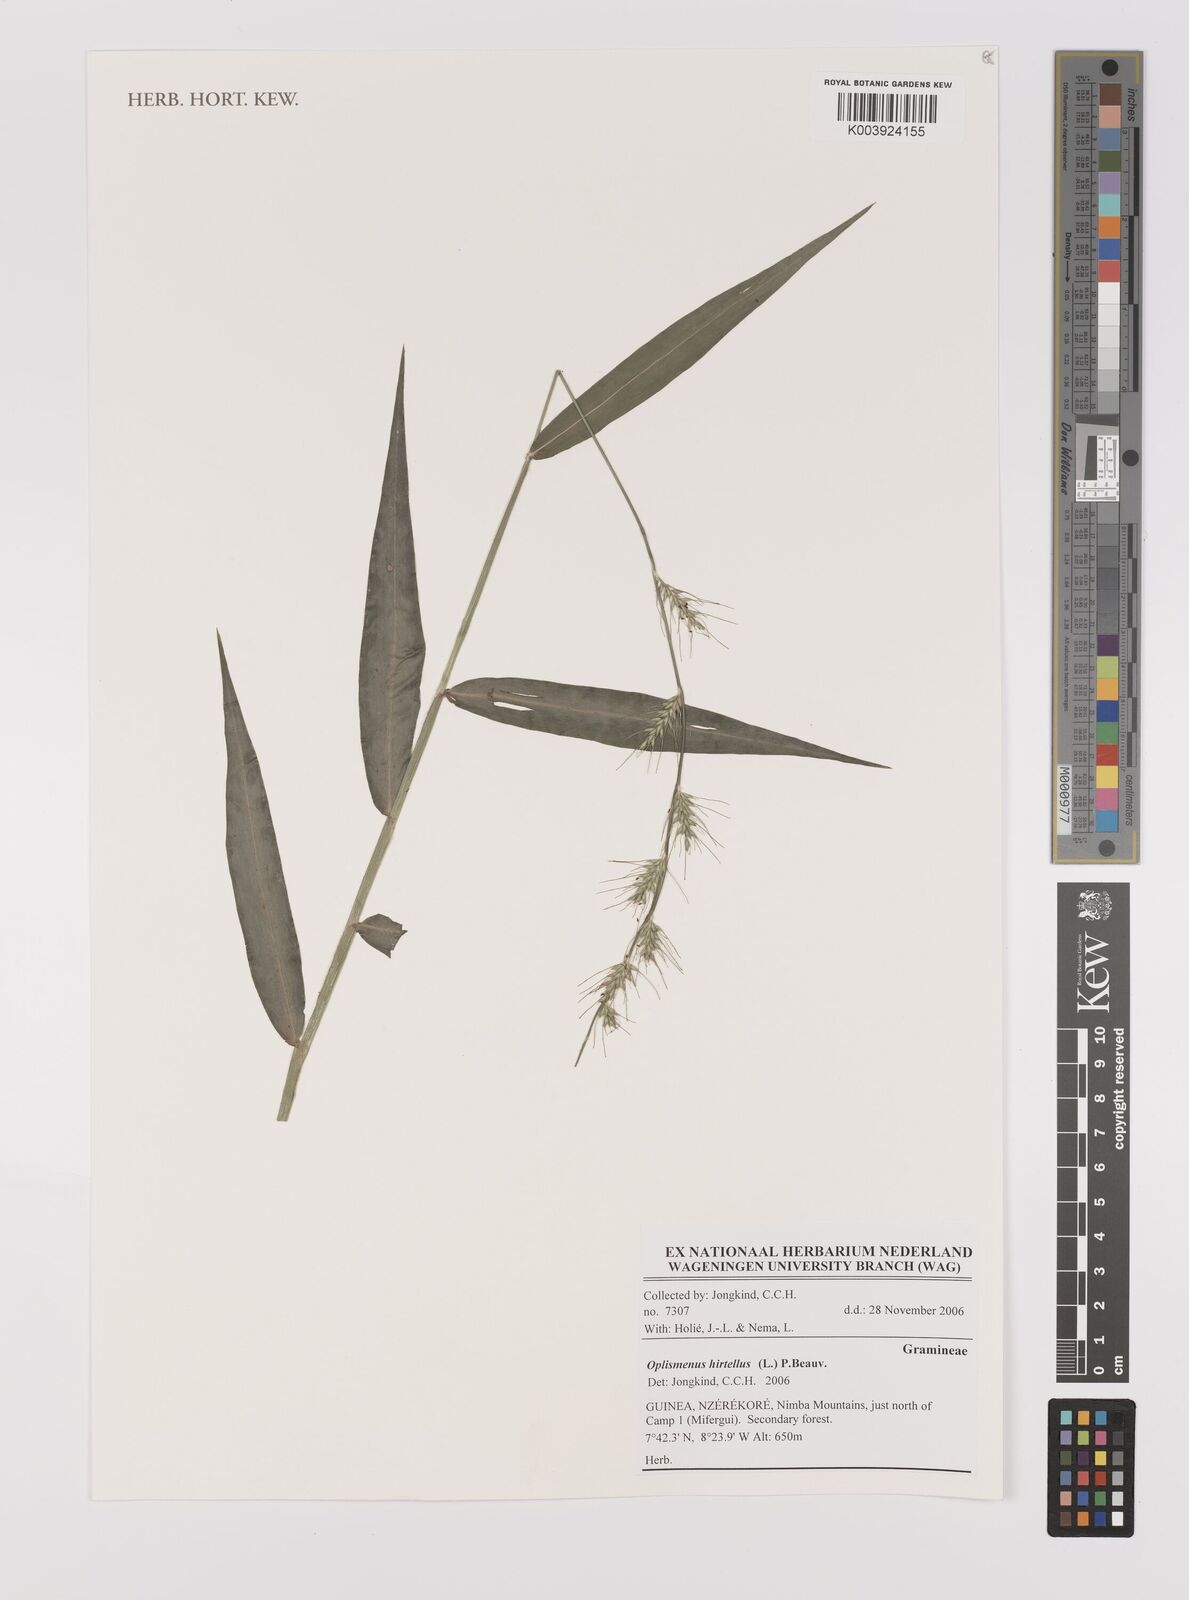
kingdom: Plantae
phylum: Tracheophyta
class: Liliopsida
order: Poales
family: Poaceae
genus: Oplismenus
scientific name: Oplismenus hirtellus
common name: Basketgrass
